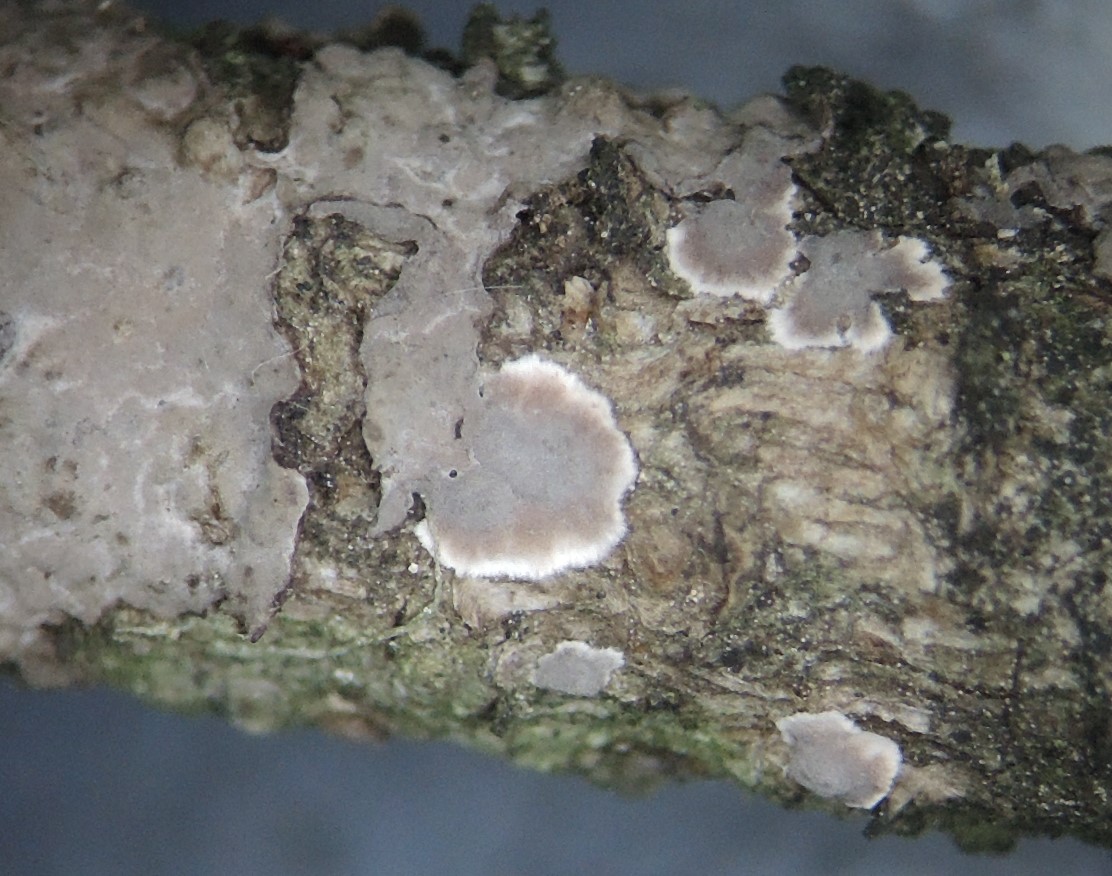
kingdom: Fungi
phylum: Basidiomycota
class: Agaricomycetes
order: Russulales
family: Peniophoraceae
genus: Peniophora
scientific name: Peniophora pini
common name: fyrre-voksskind
